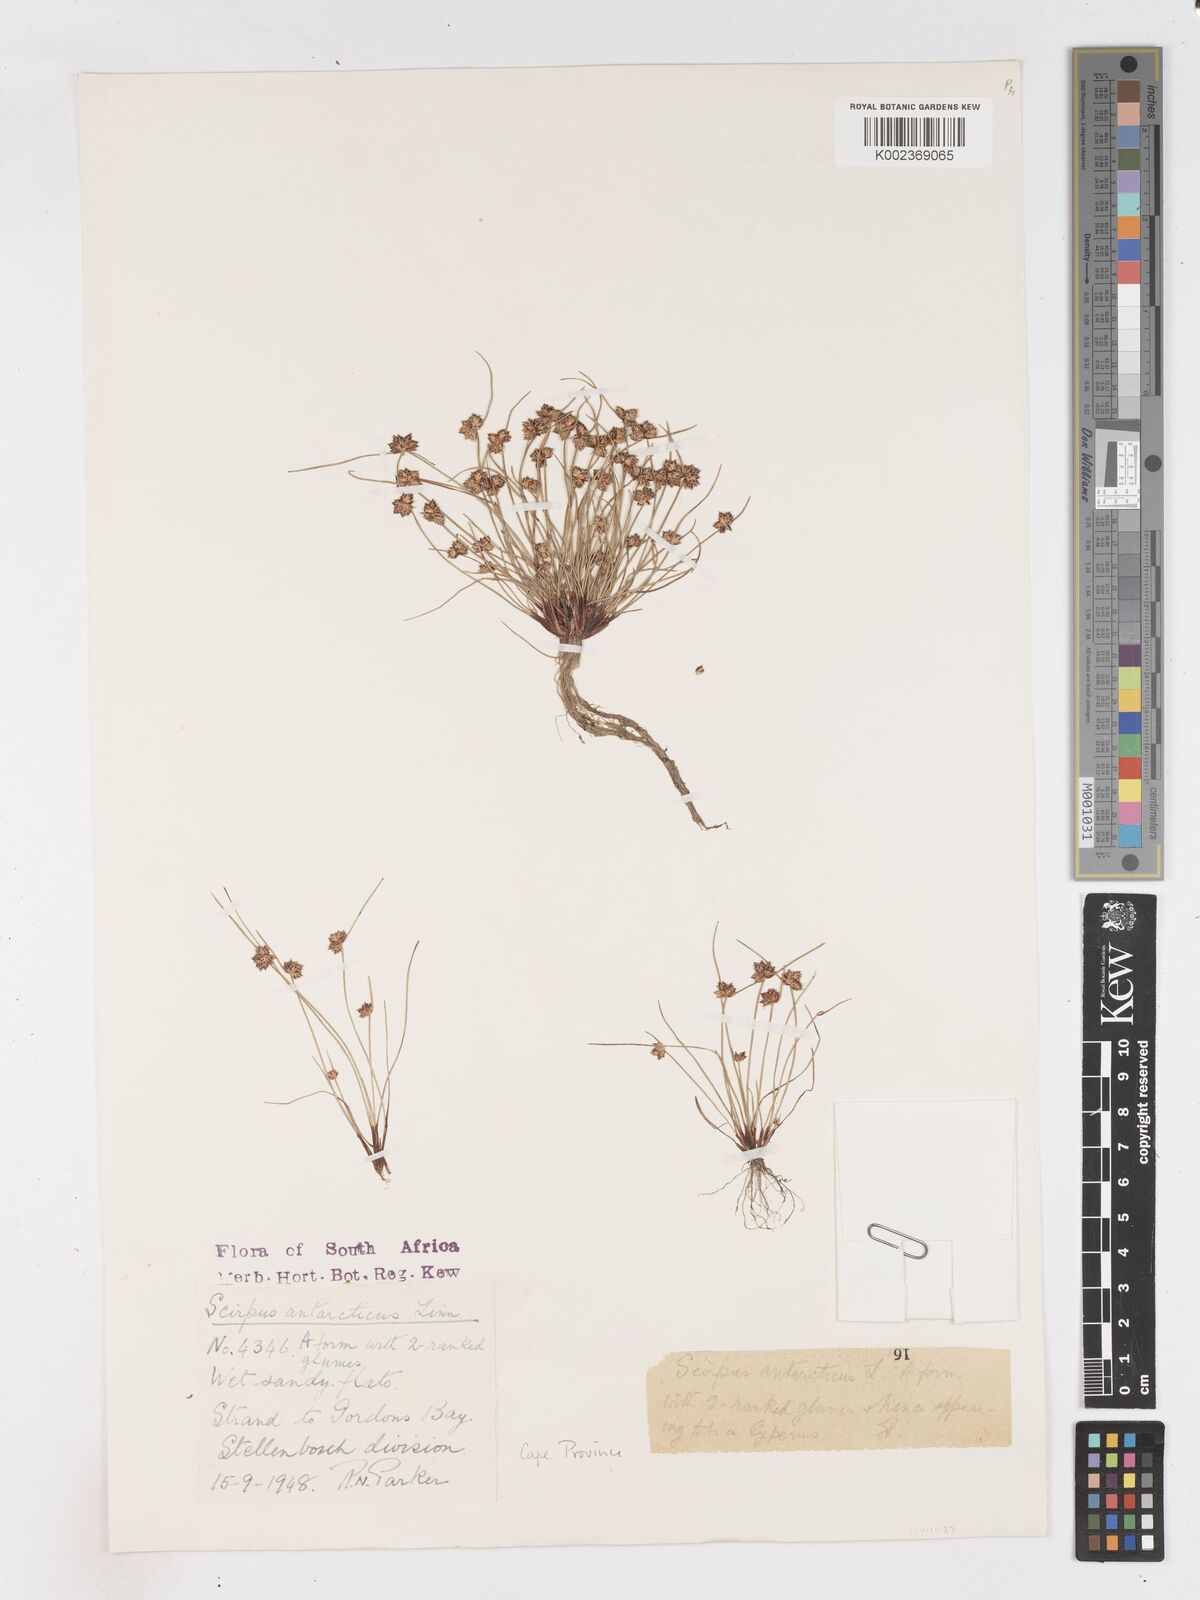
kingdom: Plantae
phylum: Tracheophyta
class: Liliopsida
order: Poales
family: Cyperaceae
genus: Isolepis
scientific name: Isolepis diabolica
